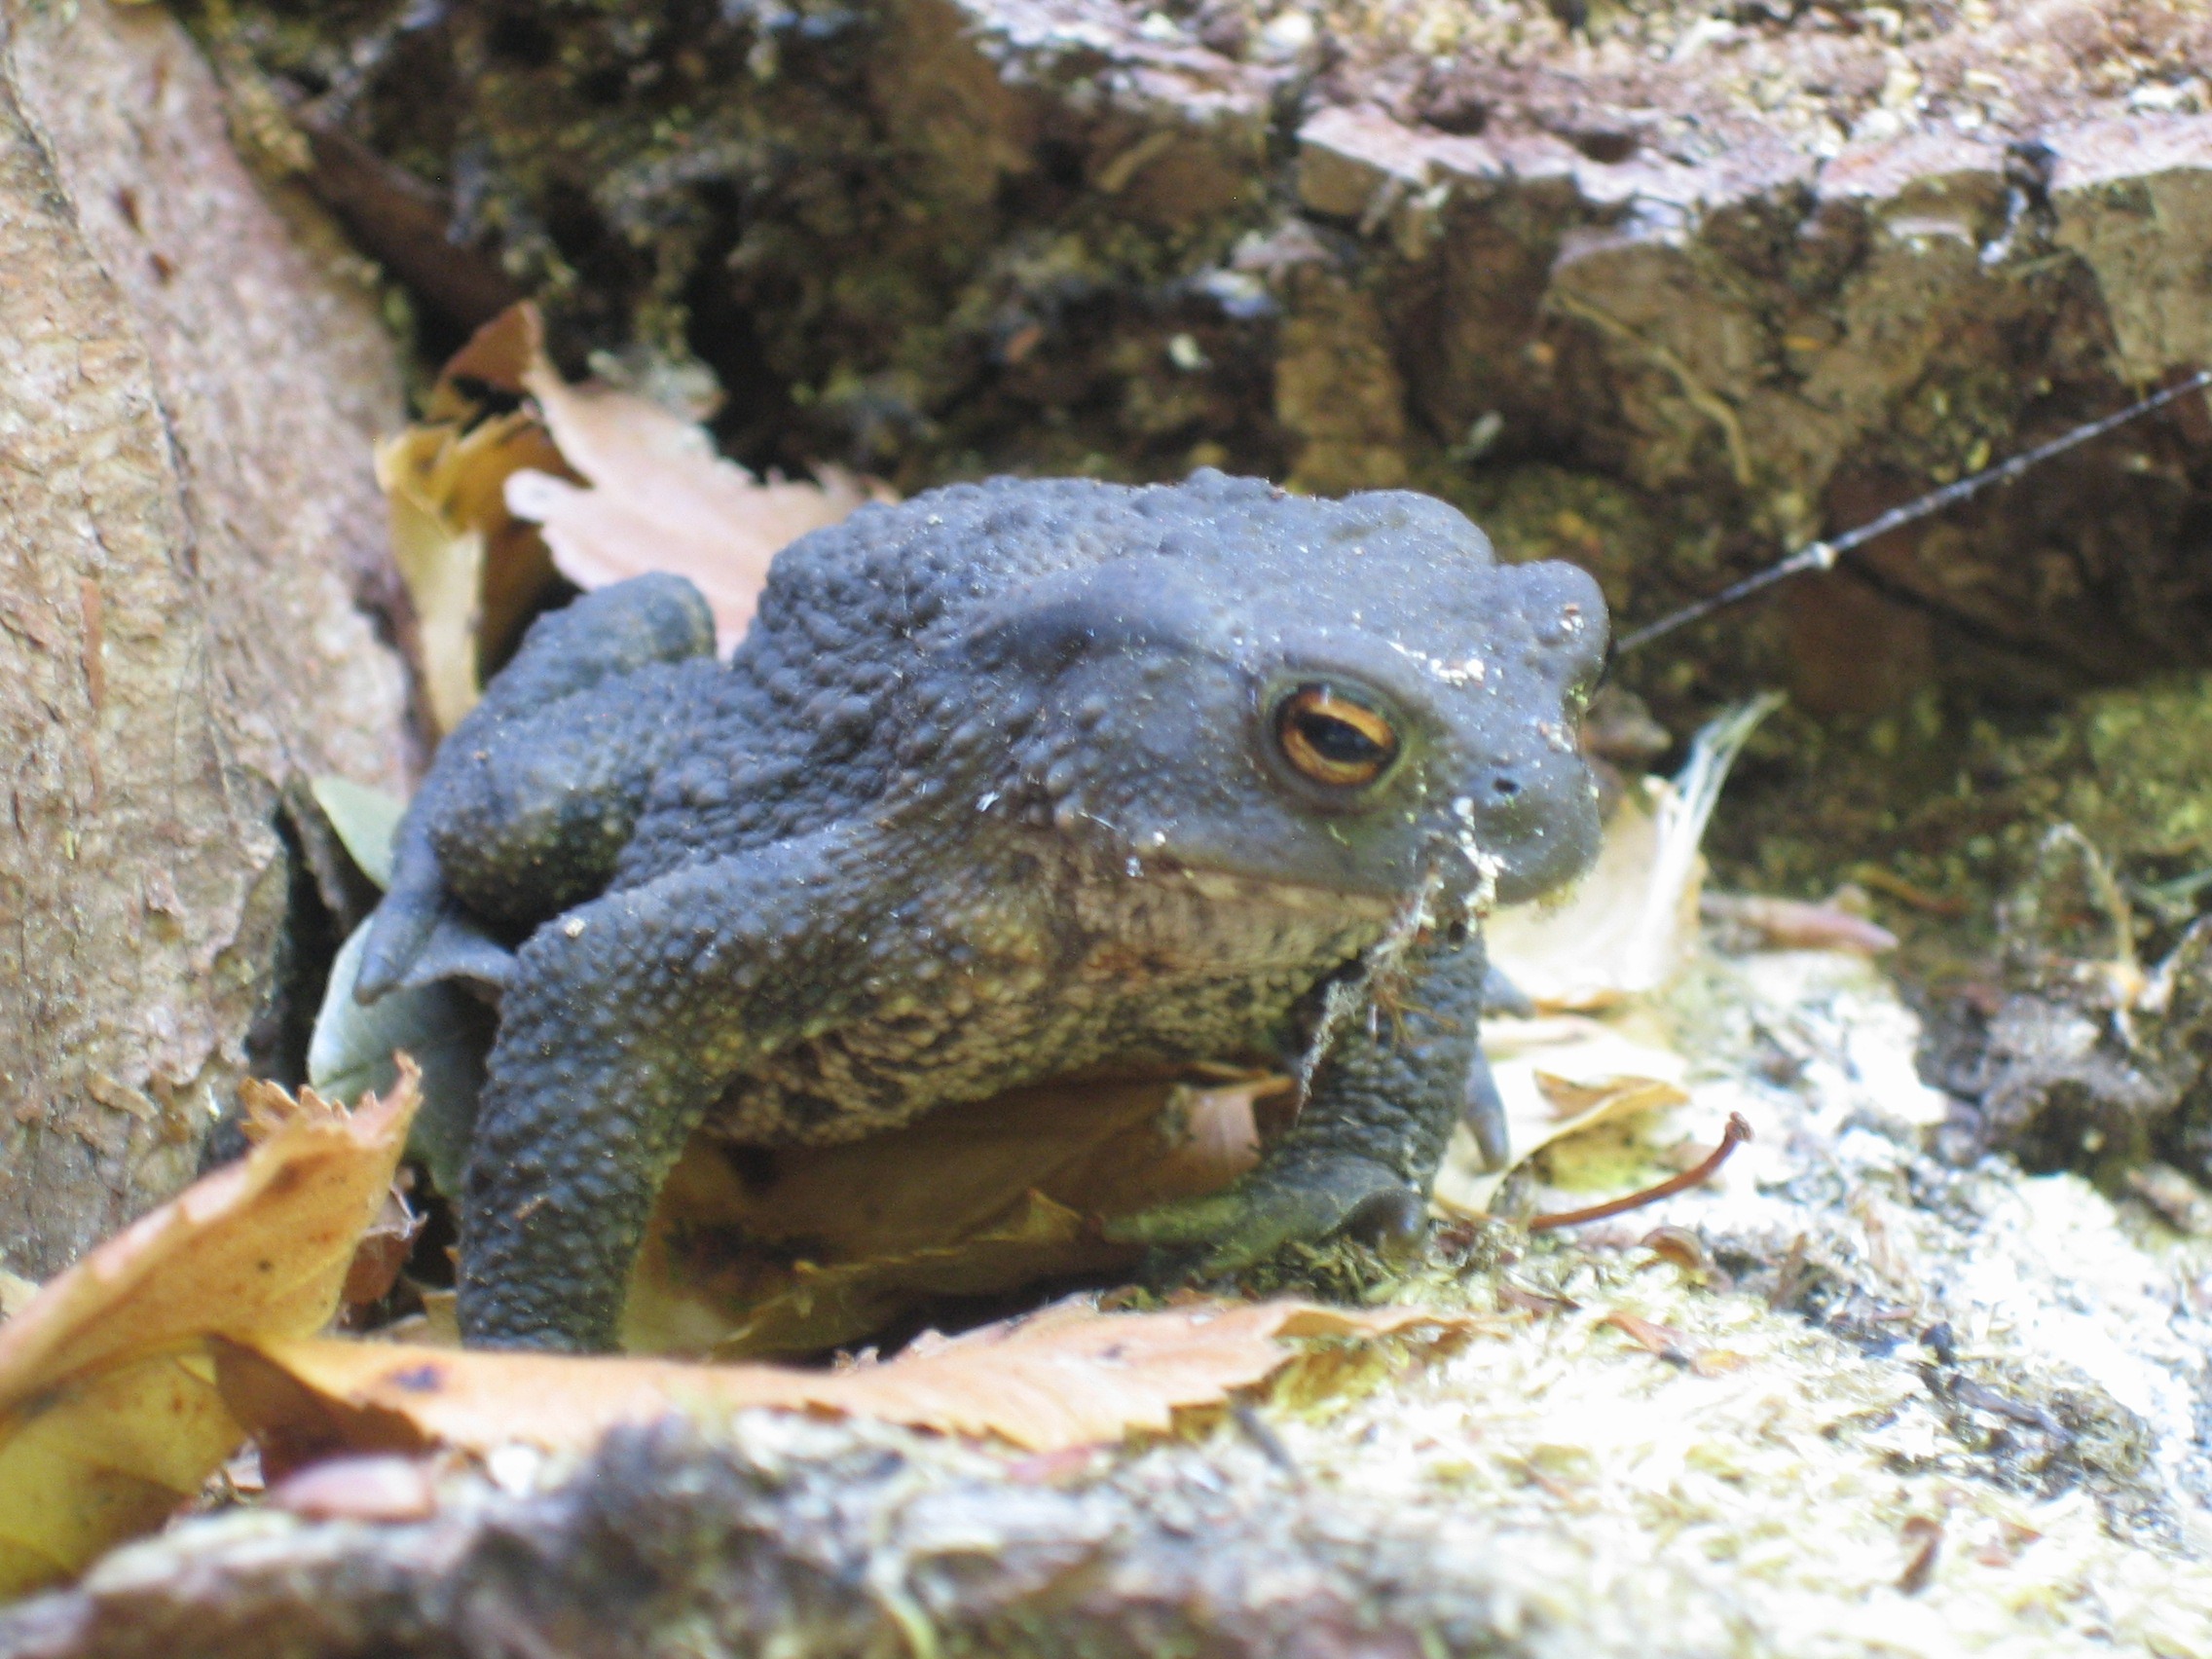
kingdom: Animalia
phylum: Chordata
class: Amphibia
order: Anura
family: Bufonidae
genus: Bufo
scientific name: Bufo bufo
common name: Skrubtudse
